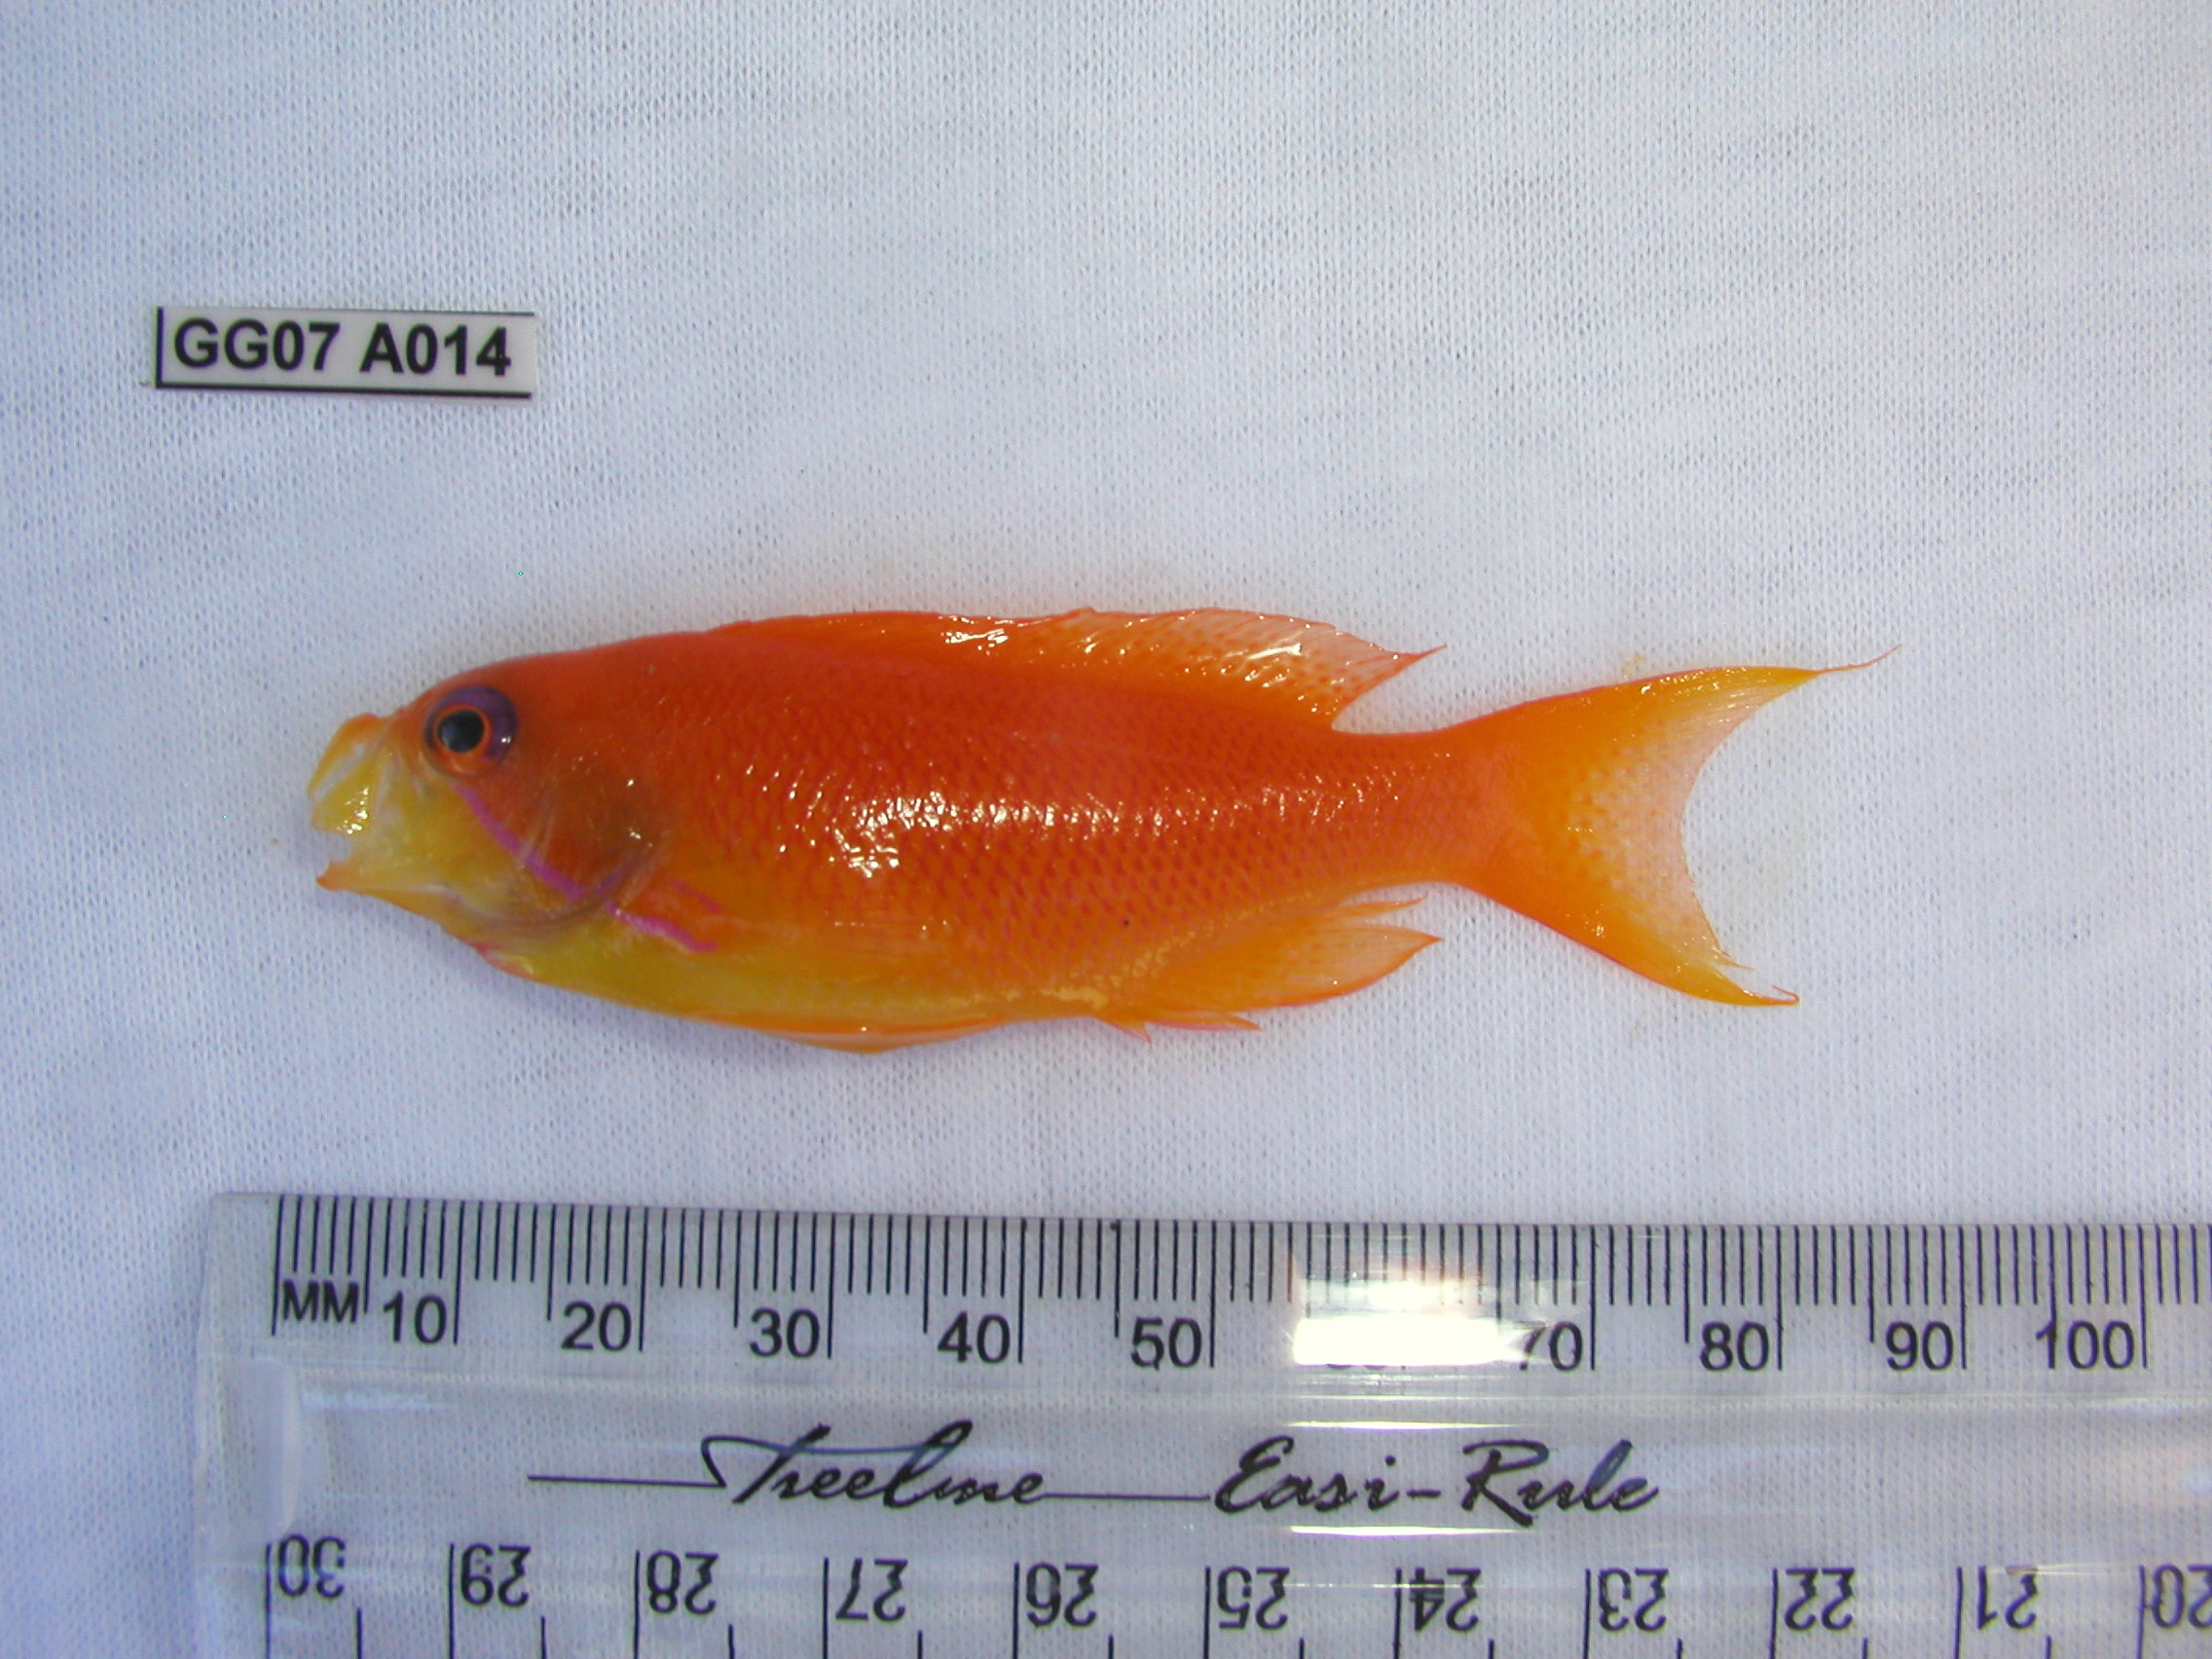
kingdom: Animalia
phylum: Chordata
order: Perciformes
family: Serranidae
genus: Pseudanthias
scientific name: Pseudanthias squamipinnis
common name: Scalefin anthias
